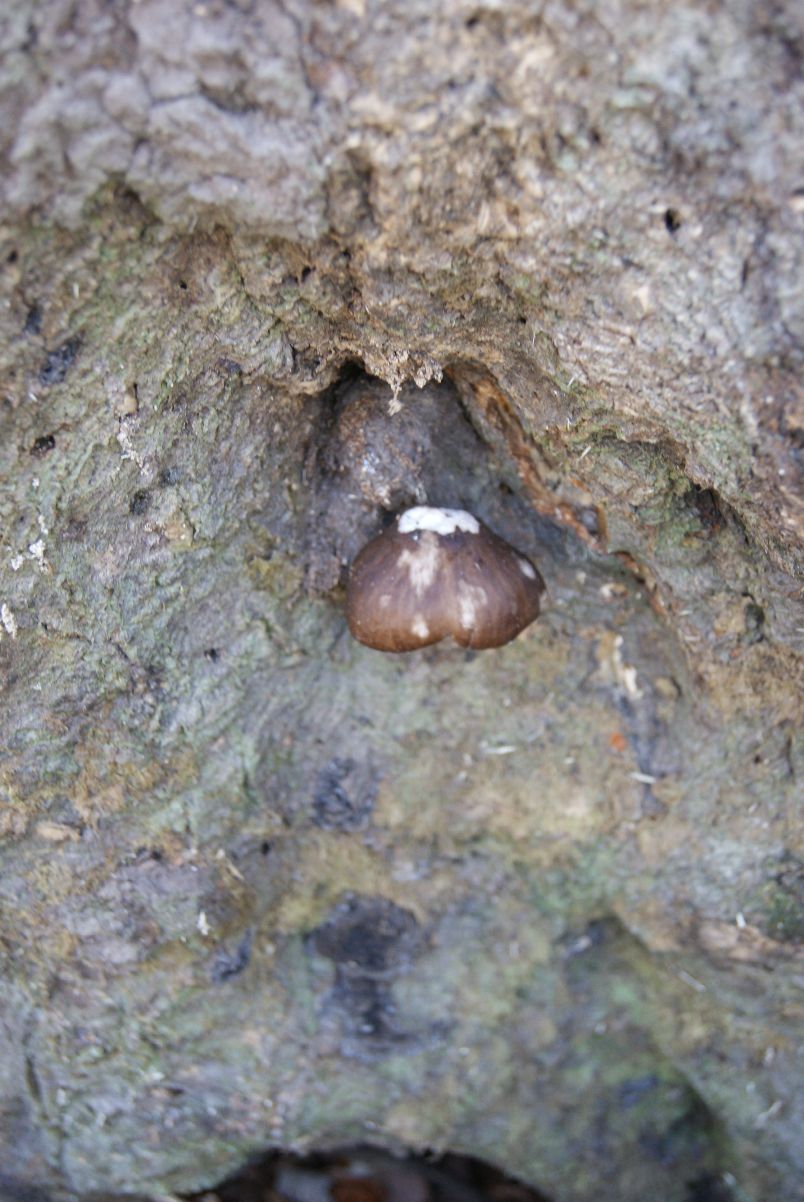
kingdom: Fungi
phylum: Basidiomycota
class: Agaricomycetes
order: Agaricales
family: Pluteaceae
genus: Pluteus
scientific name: Pluteus cervinus
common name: sodfarvet skærmhat
